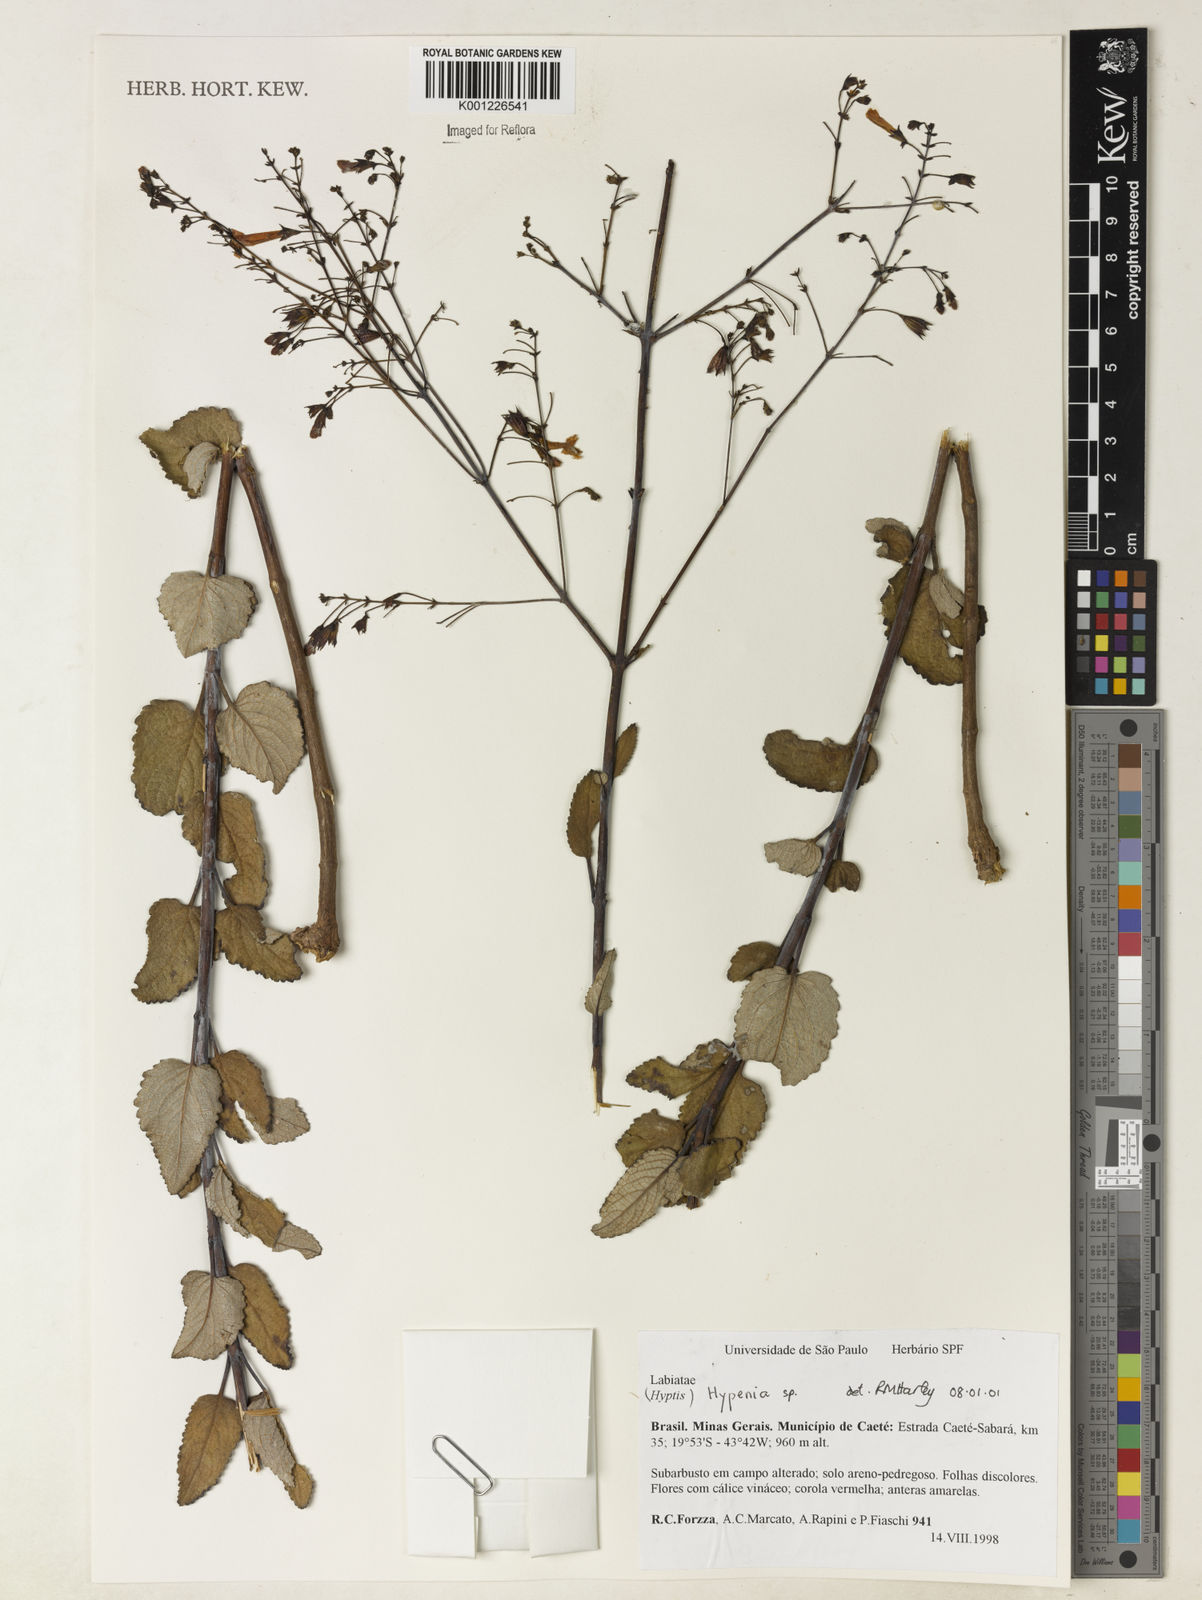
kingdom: Plantae
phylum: Tracheophyta
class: Magnoliopsida
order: Lamiales
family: Lamiaceae
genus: Hypenia
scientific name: Hypenia
